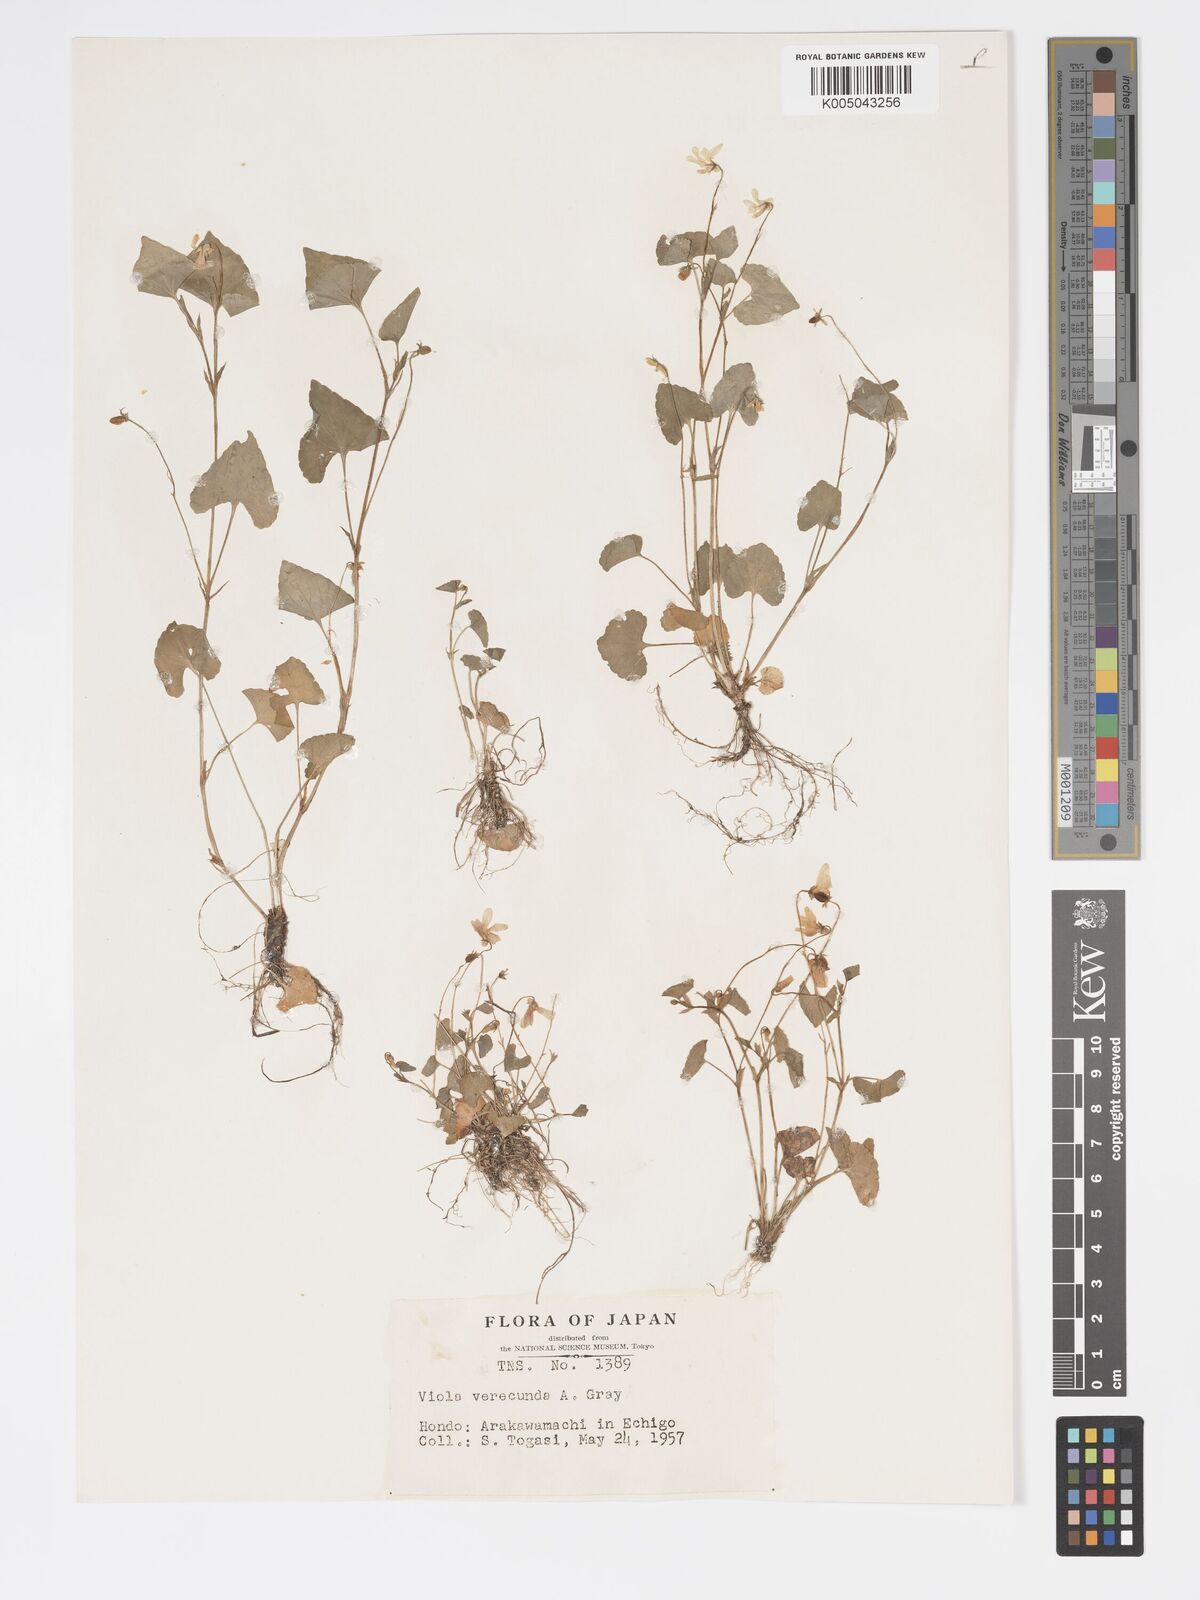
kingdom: Plantae
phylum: Tracheophyta
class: Magnoliopsida
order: Malpighiales
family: Violaceae
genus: Viola
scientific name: Viola hamiltoniana
